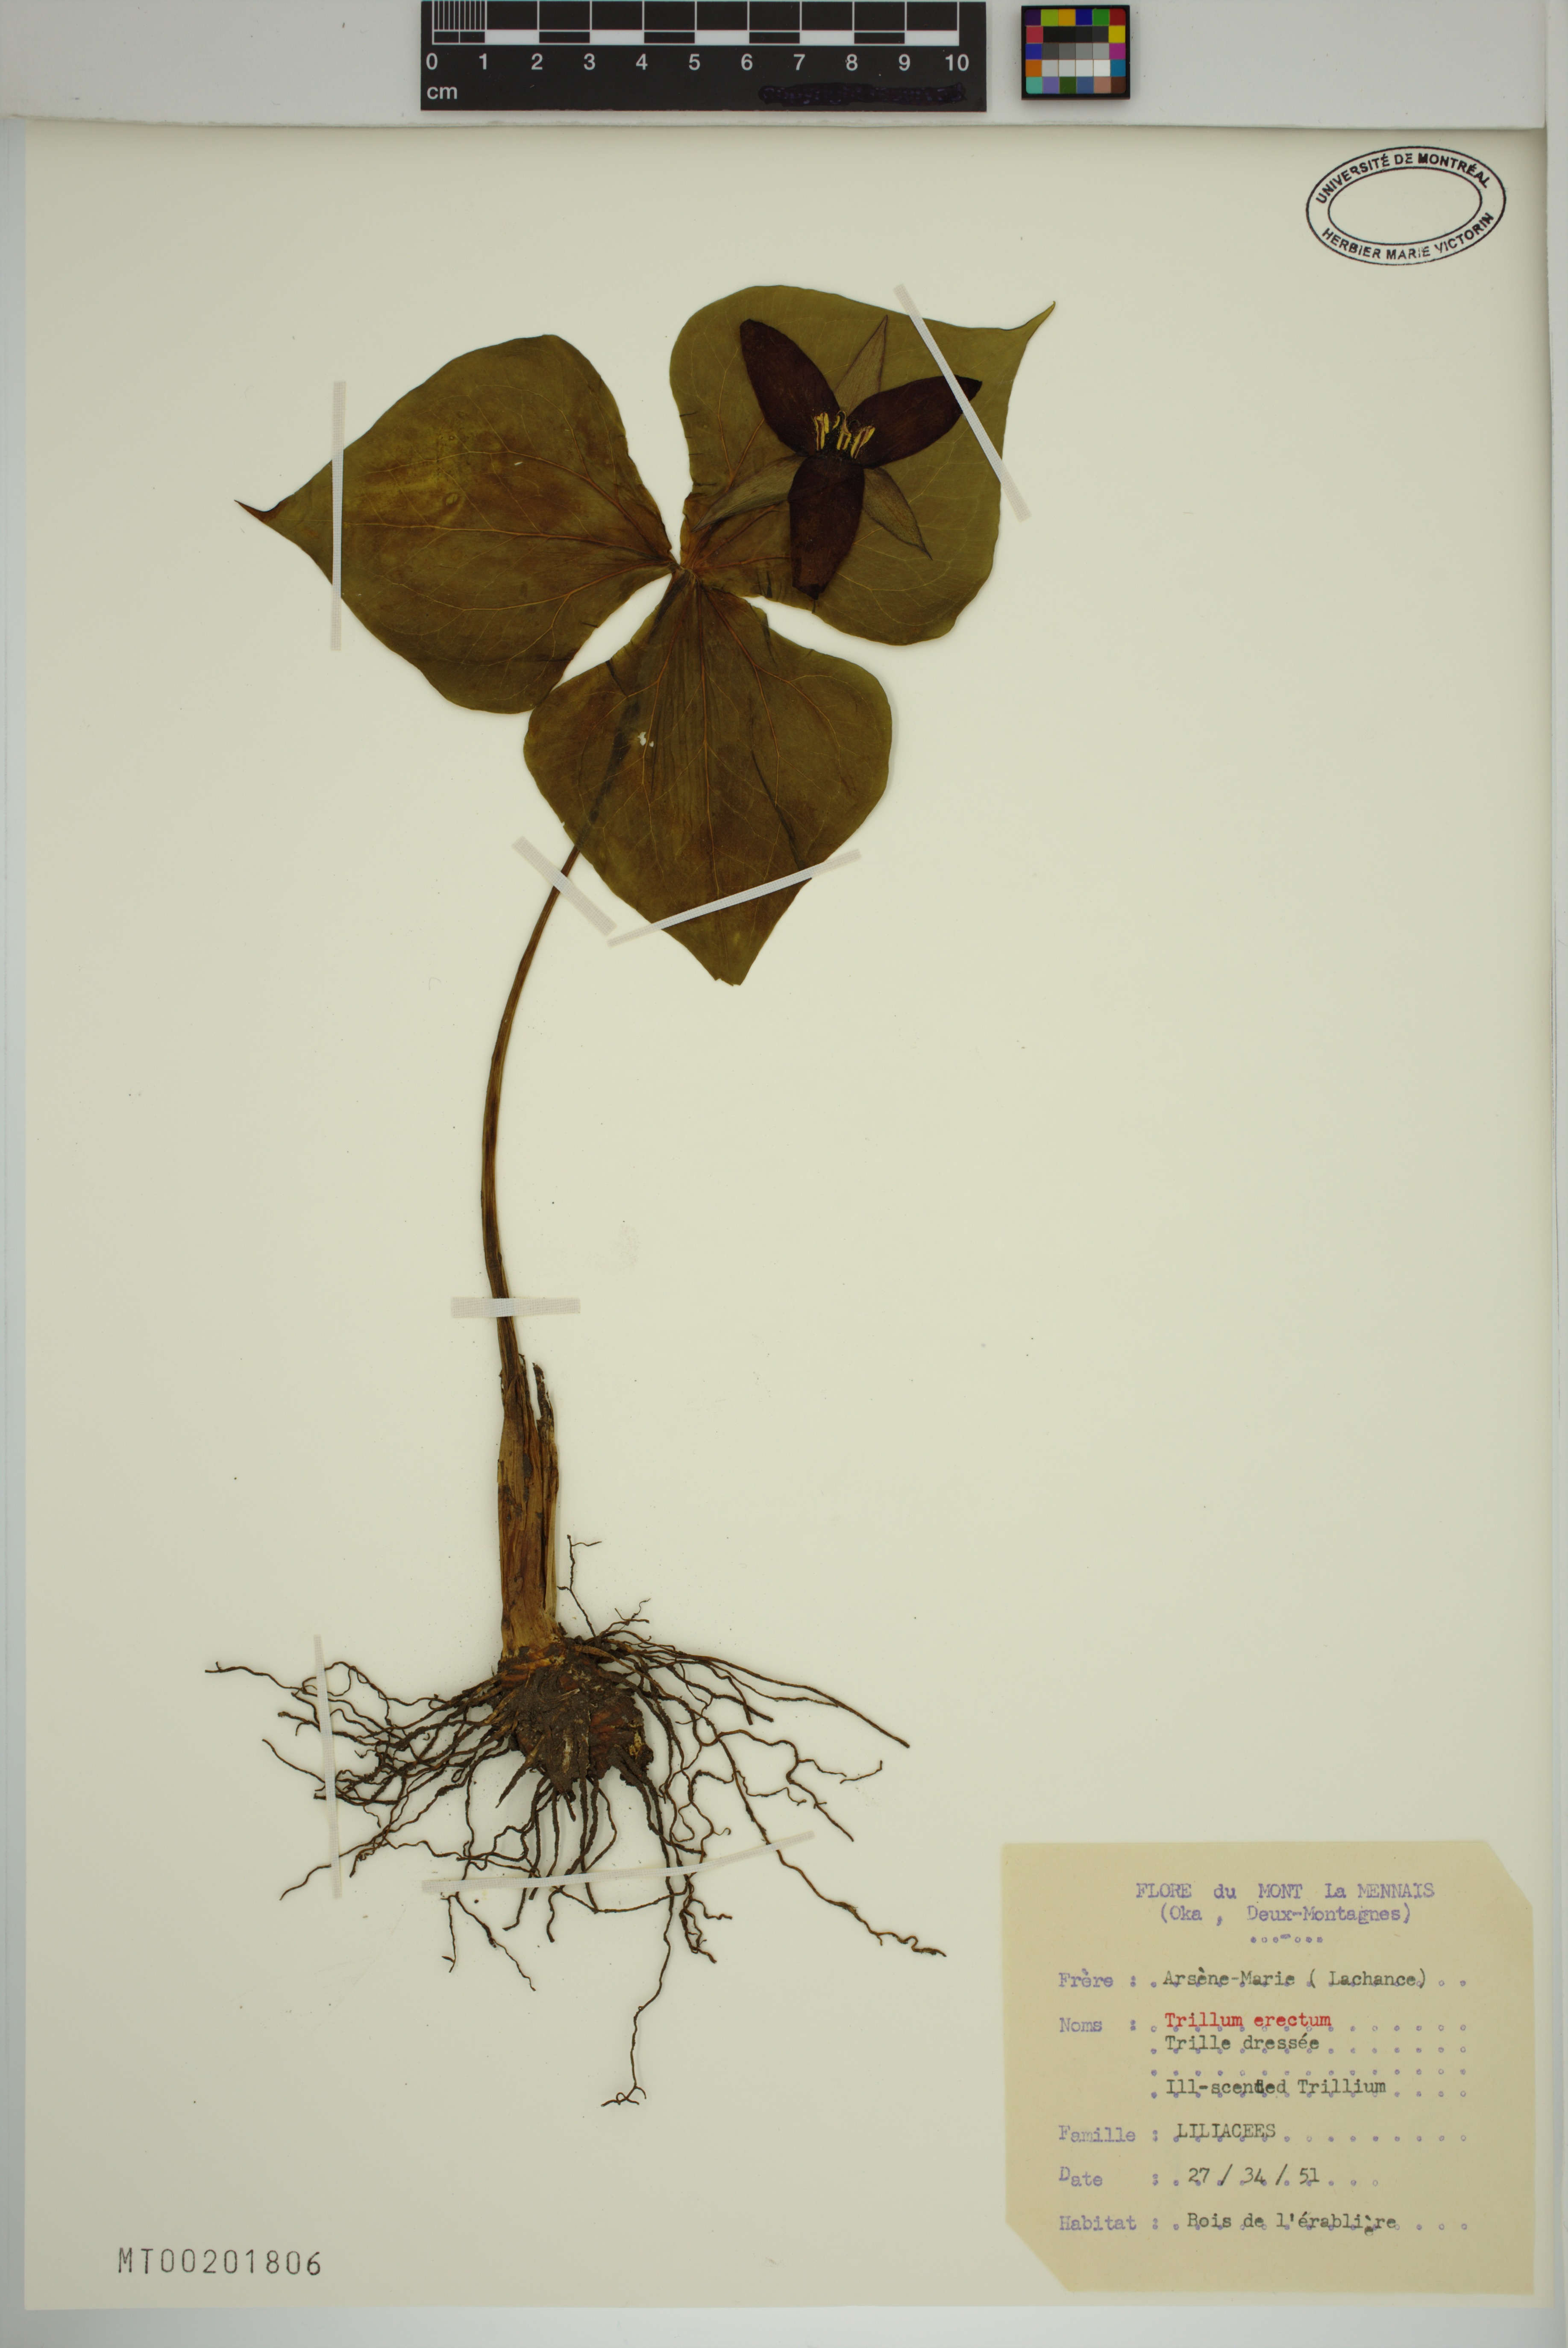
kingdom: Plantae
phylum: Tracheophyta
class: Liliopsida
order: Liliales
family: Melanthiaceae
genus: Trillium
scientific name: Trillium erectum
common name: Purple trillium
